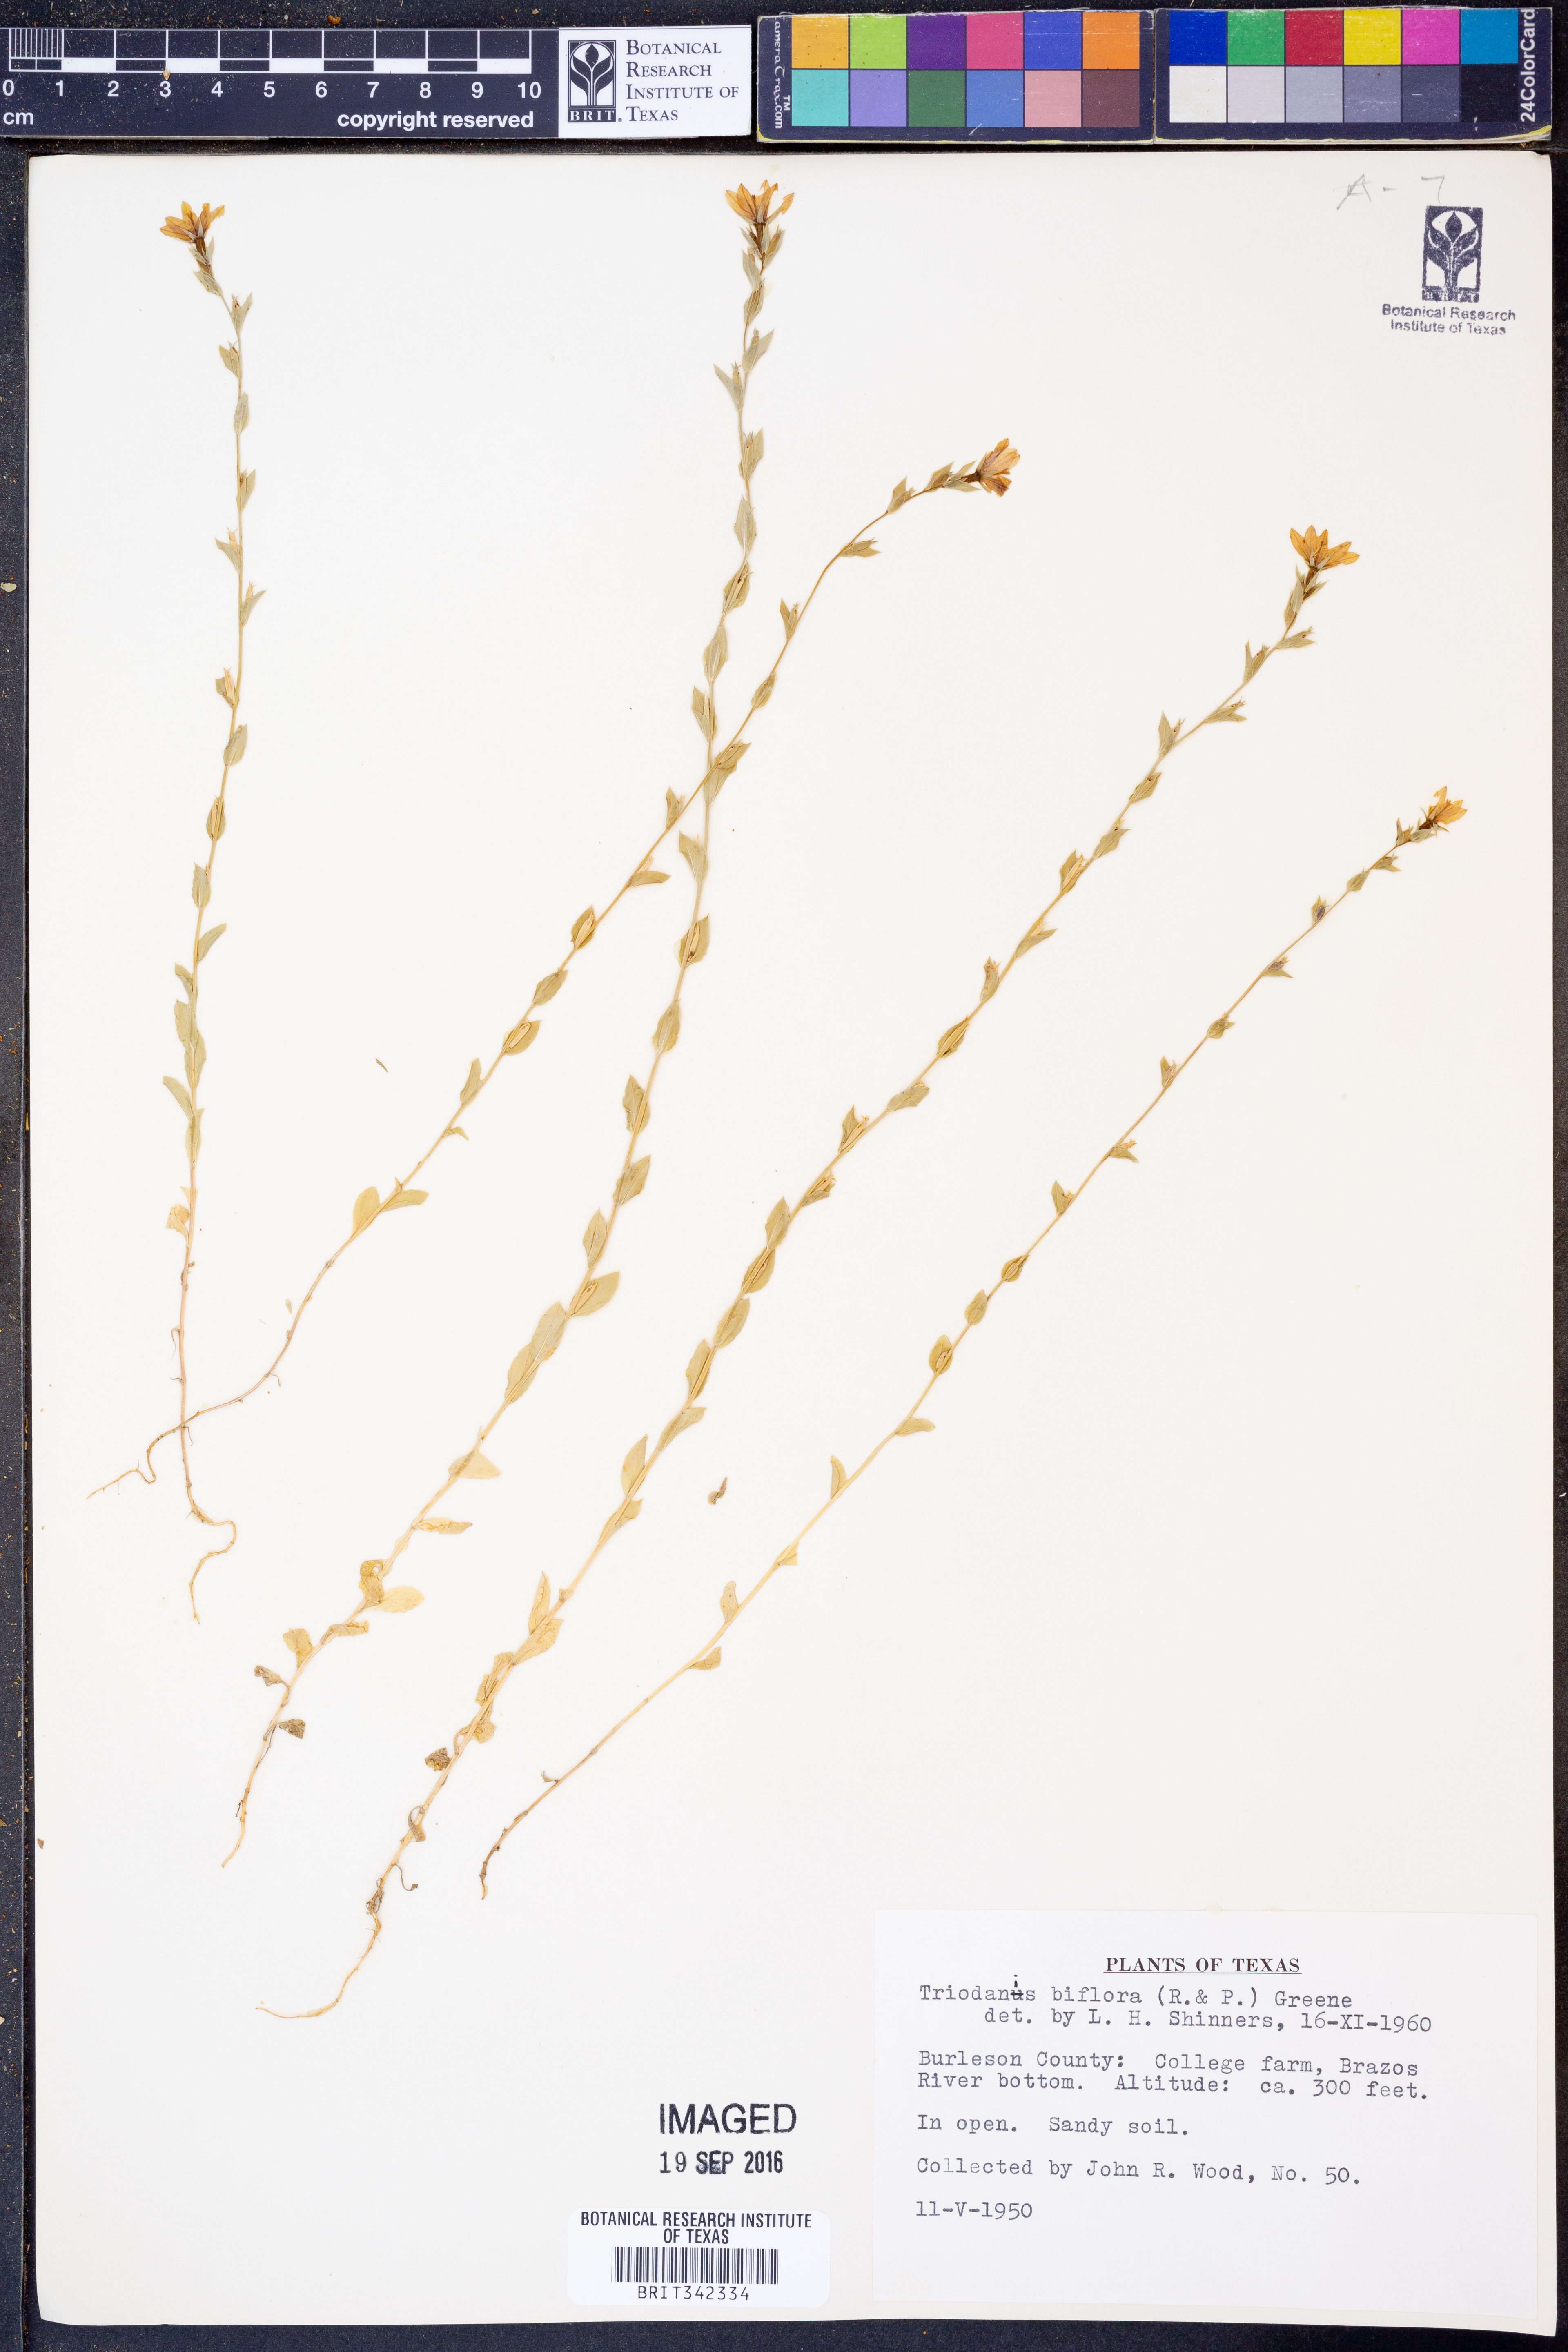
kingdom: Plantae
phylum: Tracheophyta
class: Magnoliopsida
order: Asterales
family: Campanulaceae
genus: Triodanis
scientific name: Triodanis perfoliata
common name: Clasping venus' looking-glass
